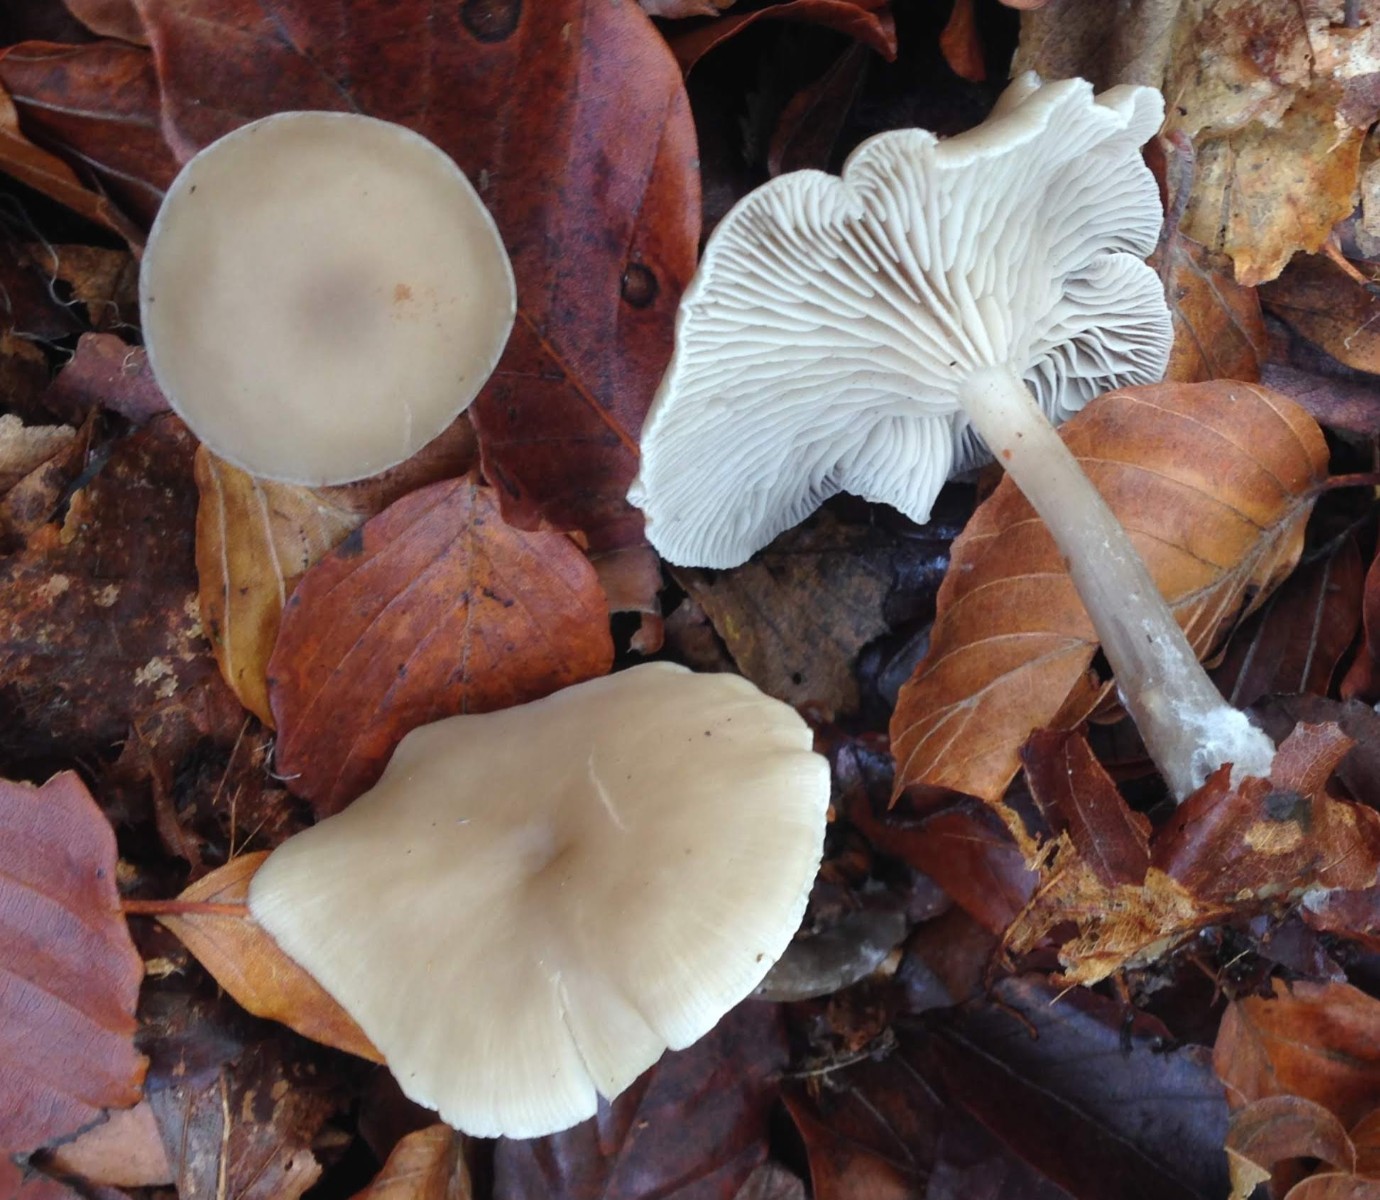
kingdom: Fungi
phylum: Basidiomycota
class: Agaricomycetes
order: Agaricales
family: Tricholomataceae
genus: Clitocybe
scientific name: Clitocybe metachroa
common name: grå tragthat
